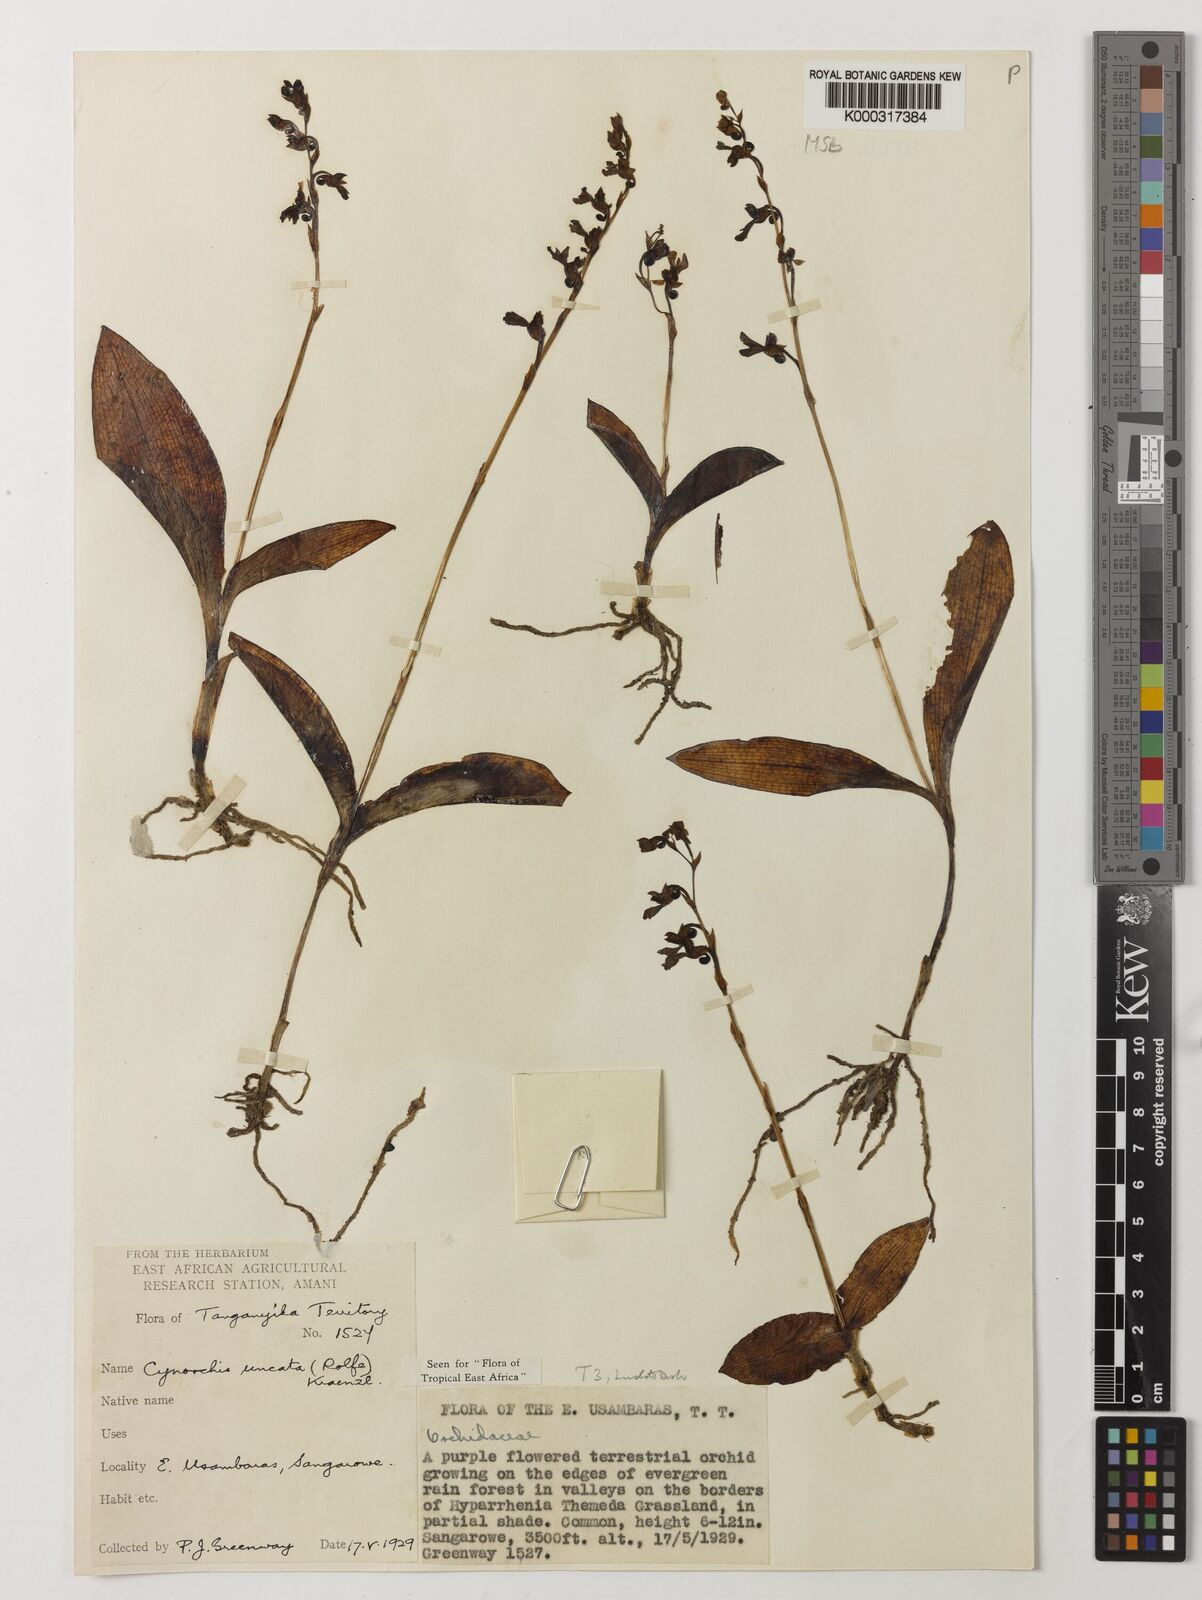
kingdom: Plantae
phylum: Tracheophyta
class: Liliopsida
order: Asparagales
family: Orchidaceae
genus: Cynorkis
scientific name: Cynorkis uncata
